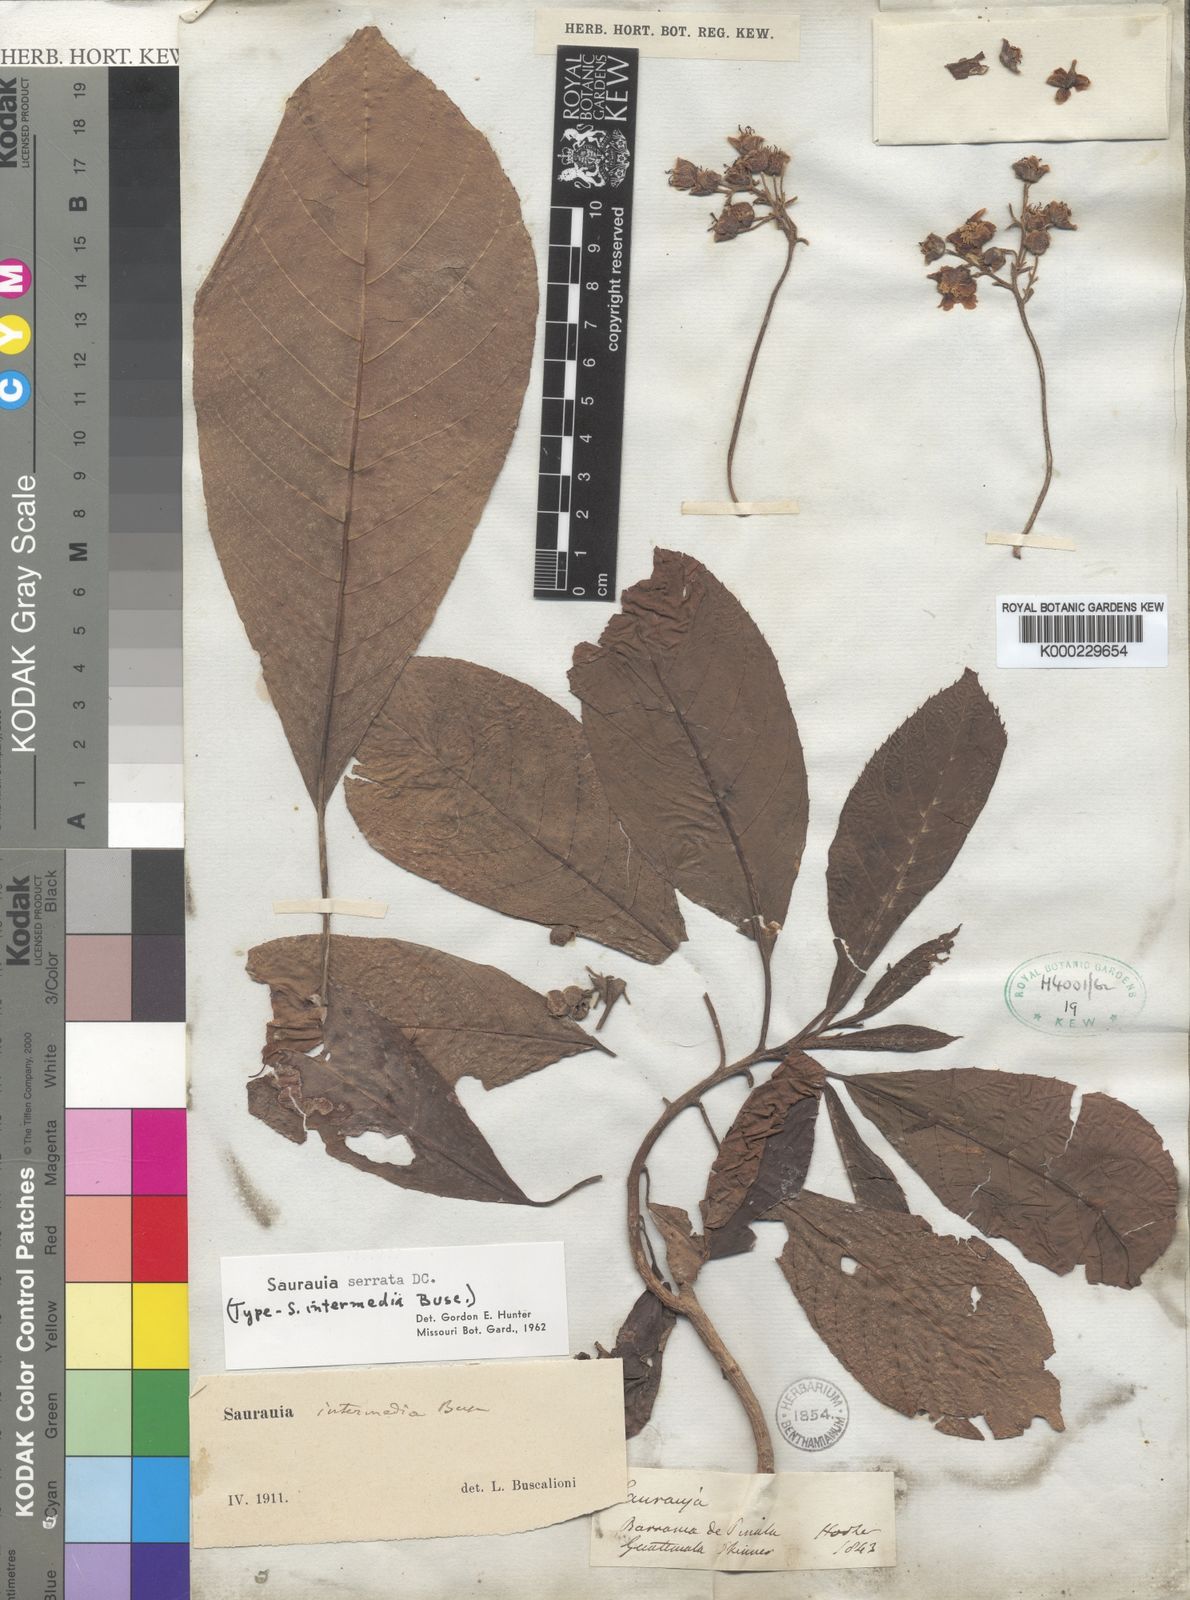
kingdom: Plantae
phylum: Tracheophyta
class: Magnoliopsida
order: Ericales
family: Actinidiaceae
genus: Saurauia
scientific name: Saurauia serrata
